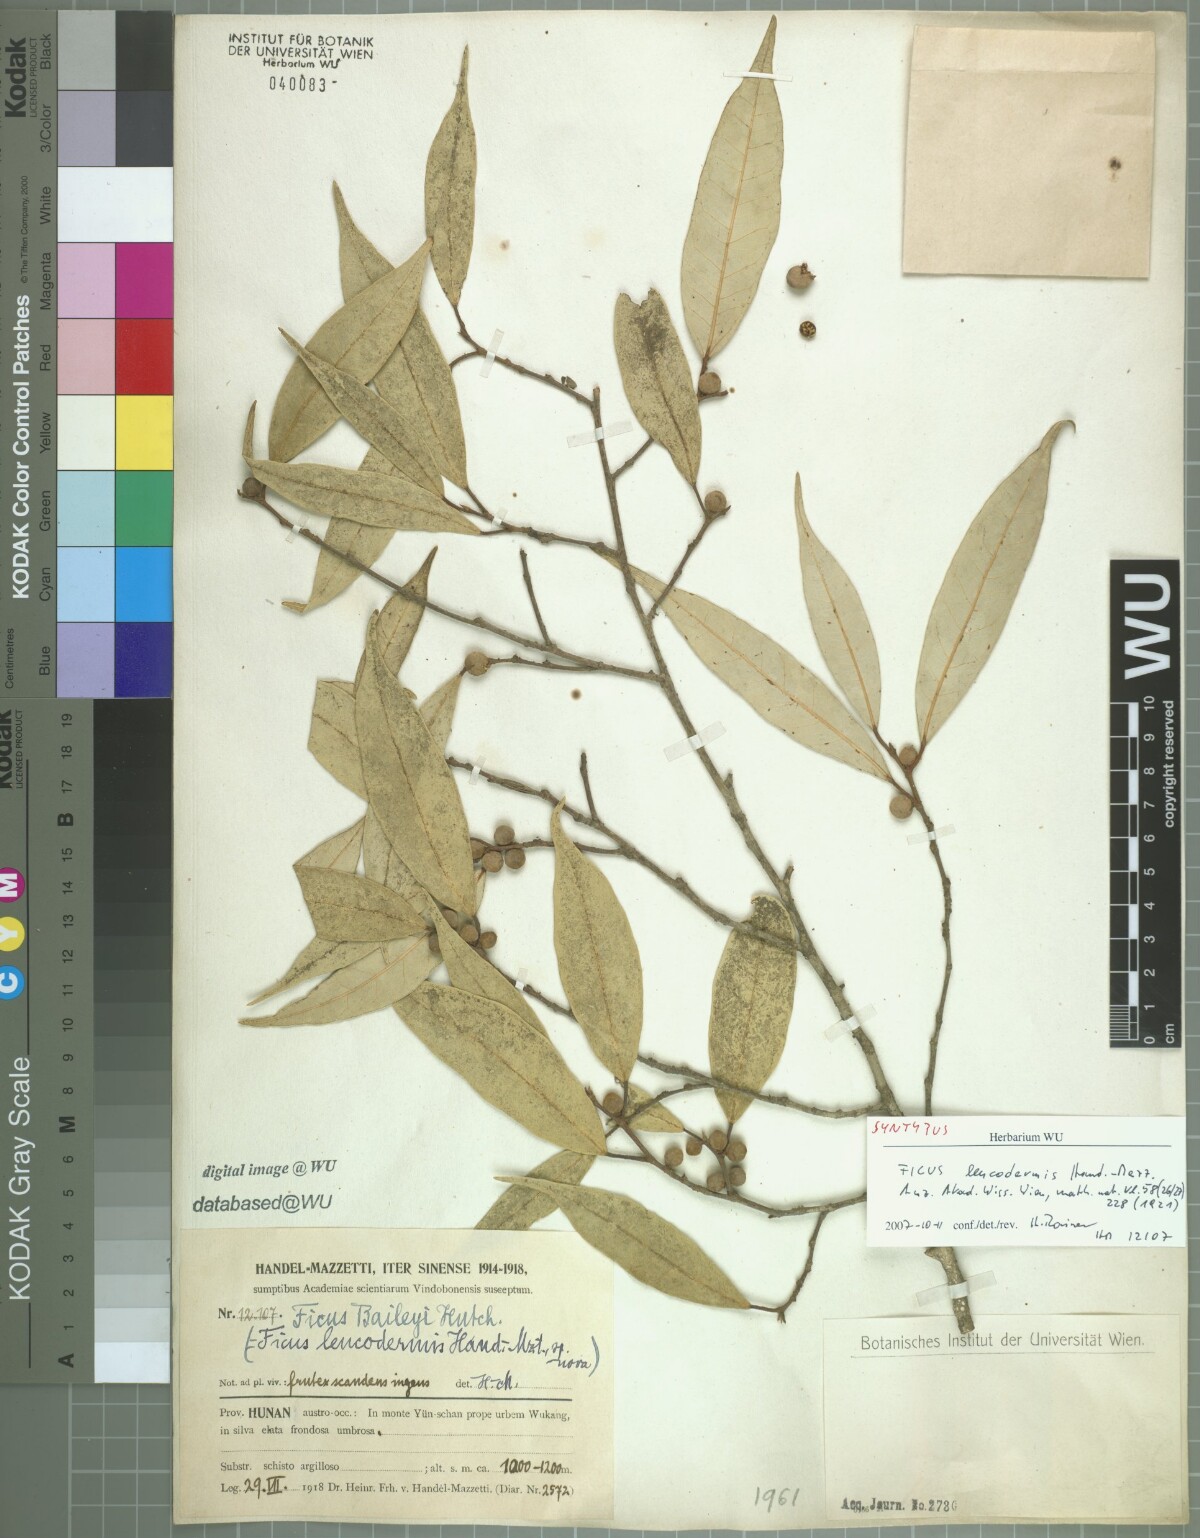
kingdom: Plantae
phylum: Tracheophyta
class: Magnoliopsida
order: Rosales
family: Moraceae
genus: Ficus
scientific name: Ficus sarmentosa
